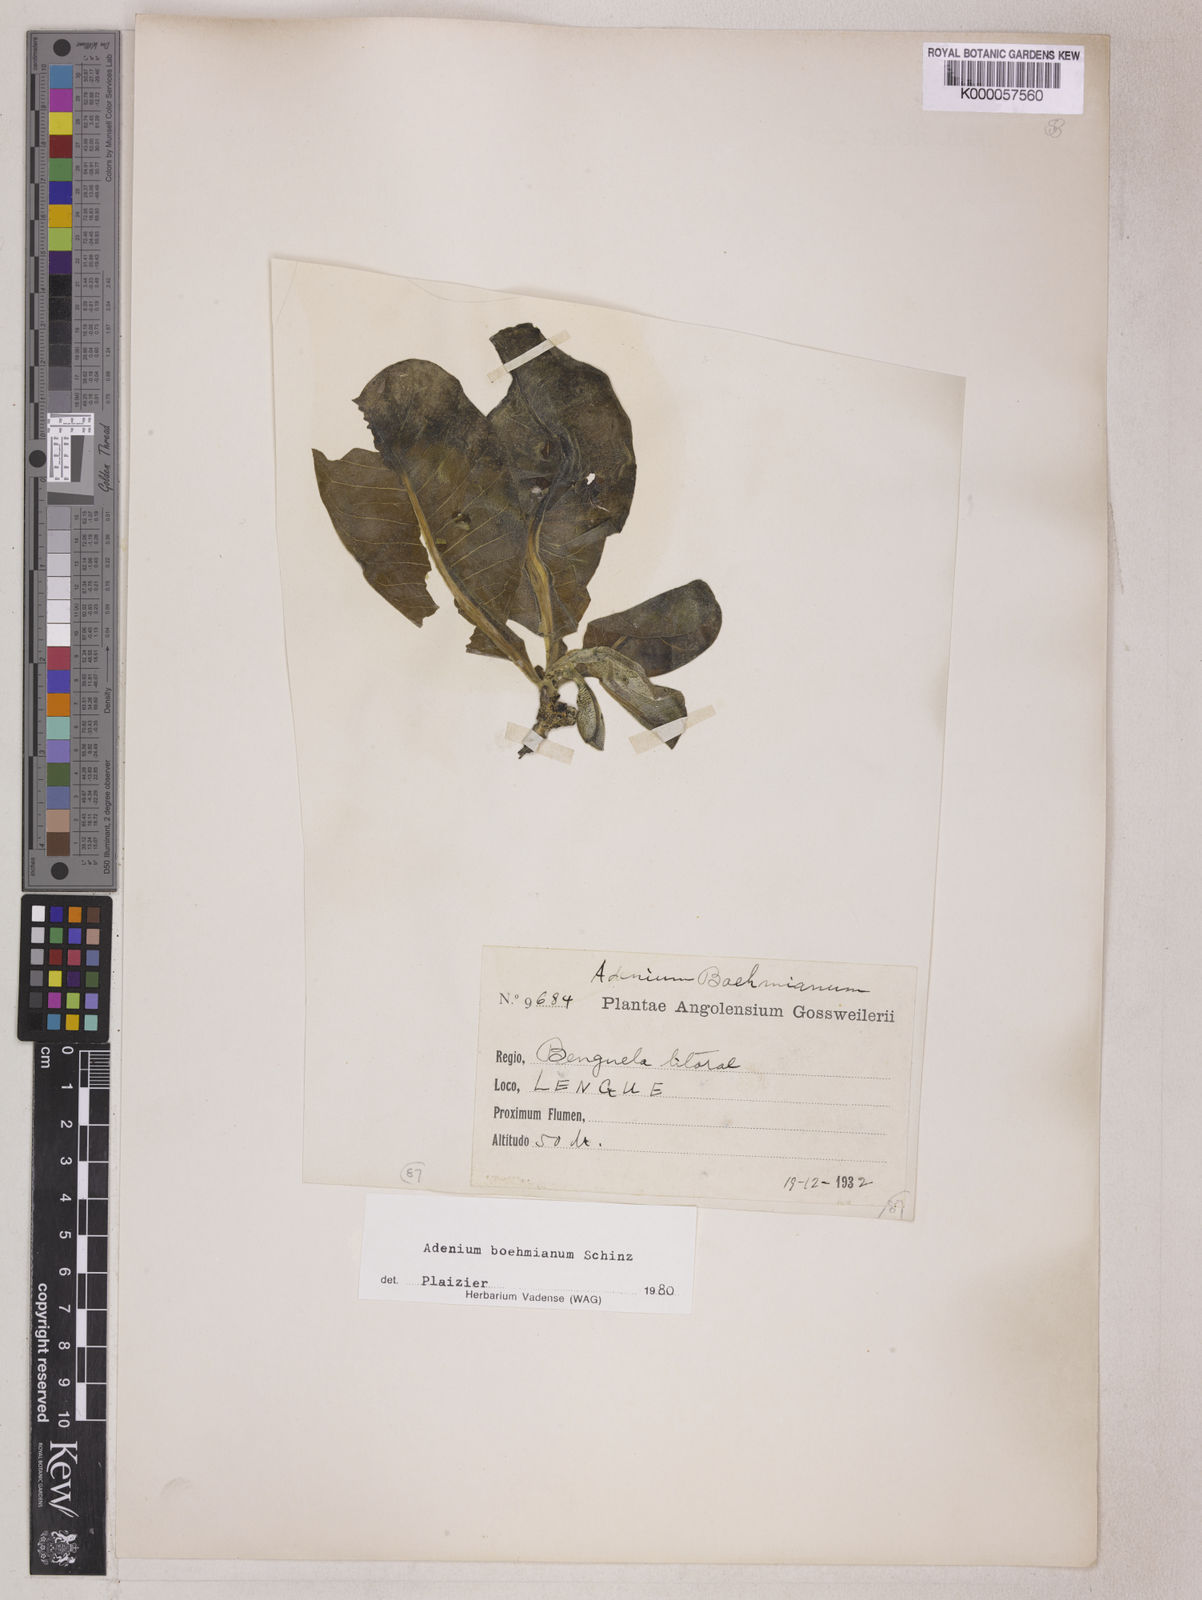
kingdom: Plantae
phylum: Tracheophyta
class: Magnoliopsida
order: Gentianales
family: Apocynaceae
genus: Adenium
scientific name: Adenium obesum
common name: Desert-rose
